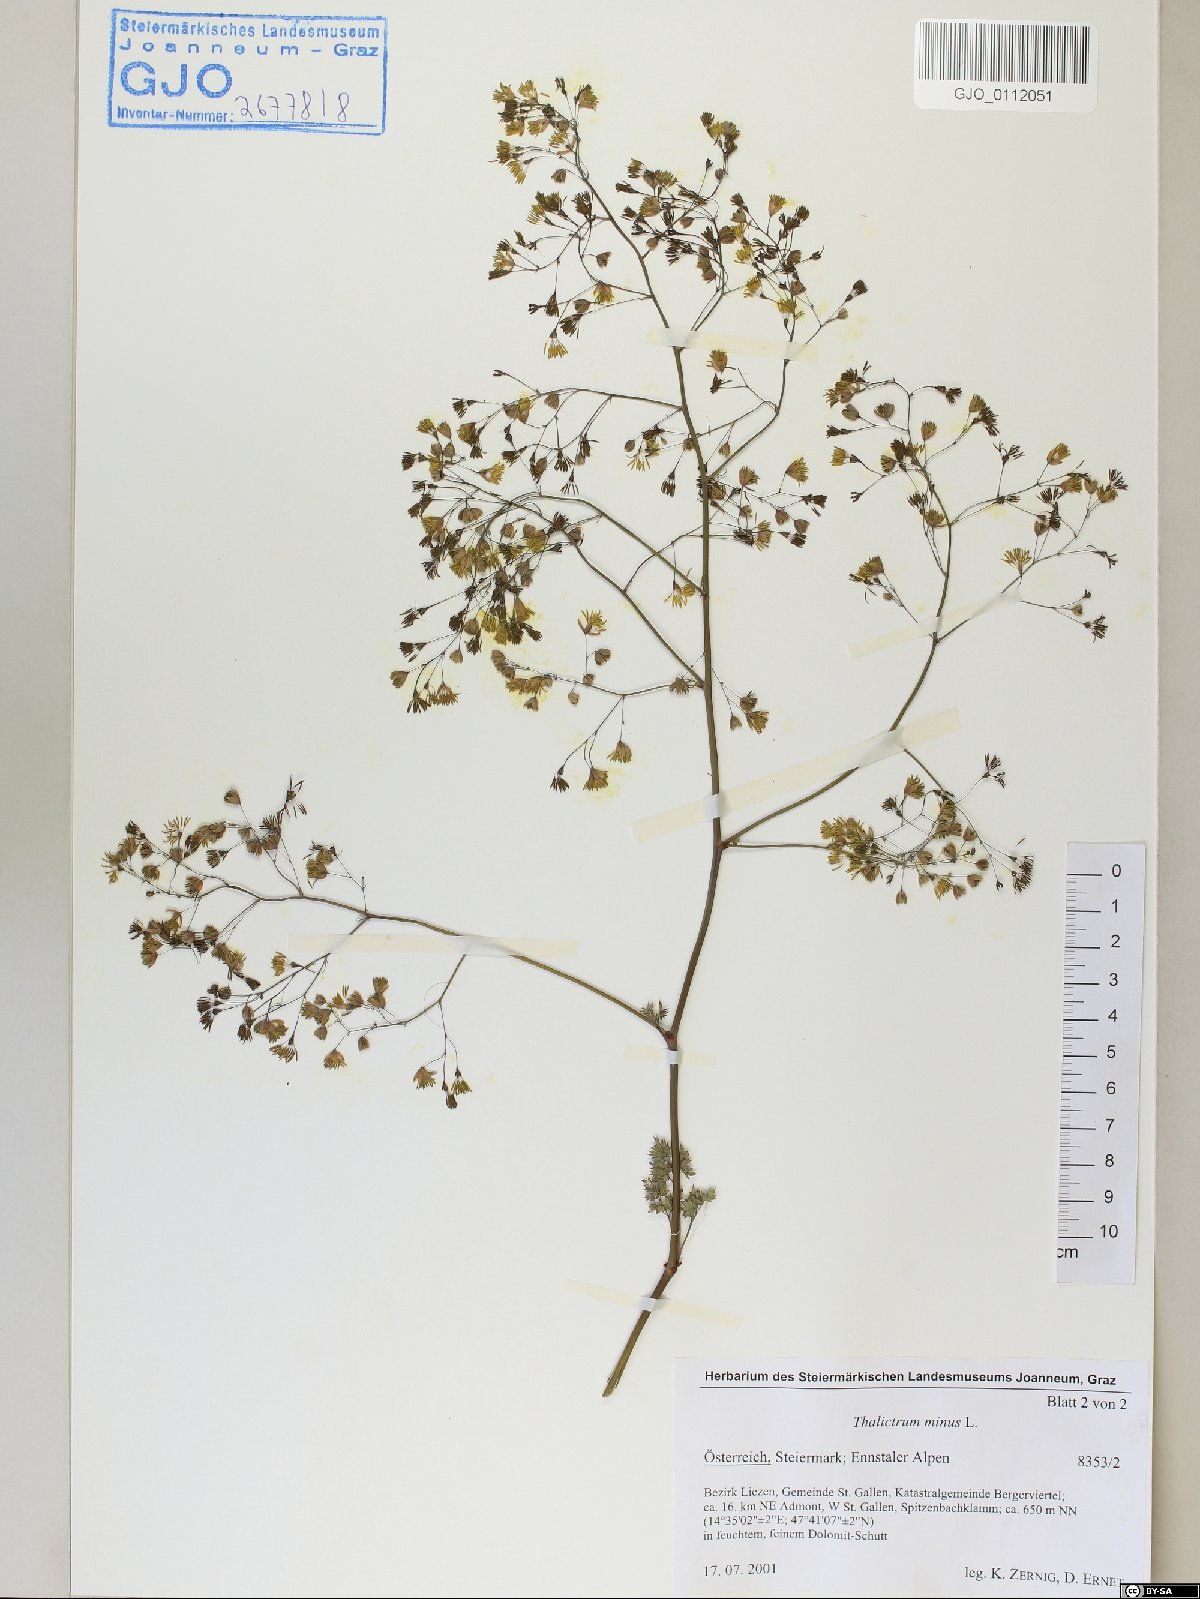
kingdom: Plantae
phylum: Tracheophyta
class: Magnoliopsida
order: Ranunculales
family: Ranunculaceae
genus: Thalictrum
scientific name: Thalictrum minus
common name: Lesser meadow-rue
